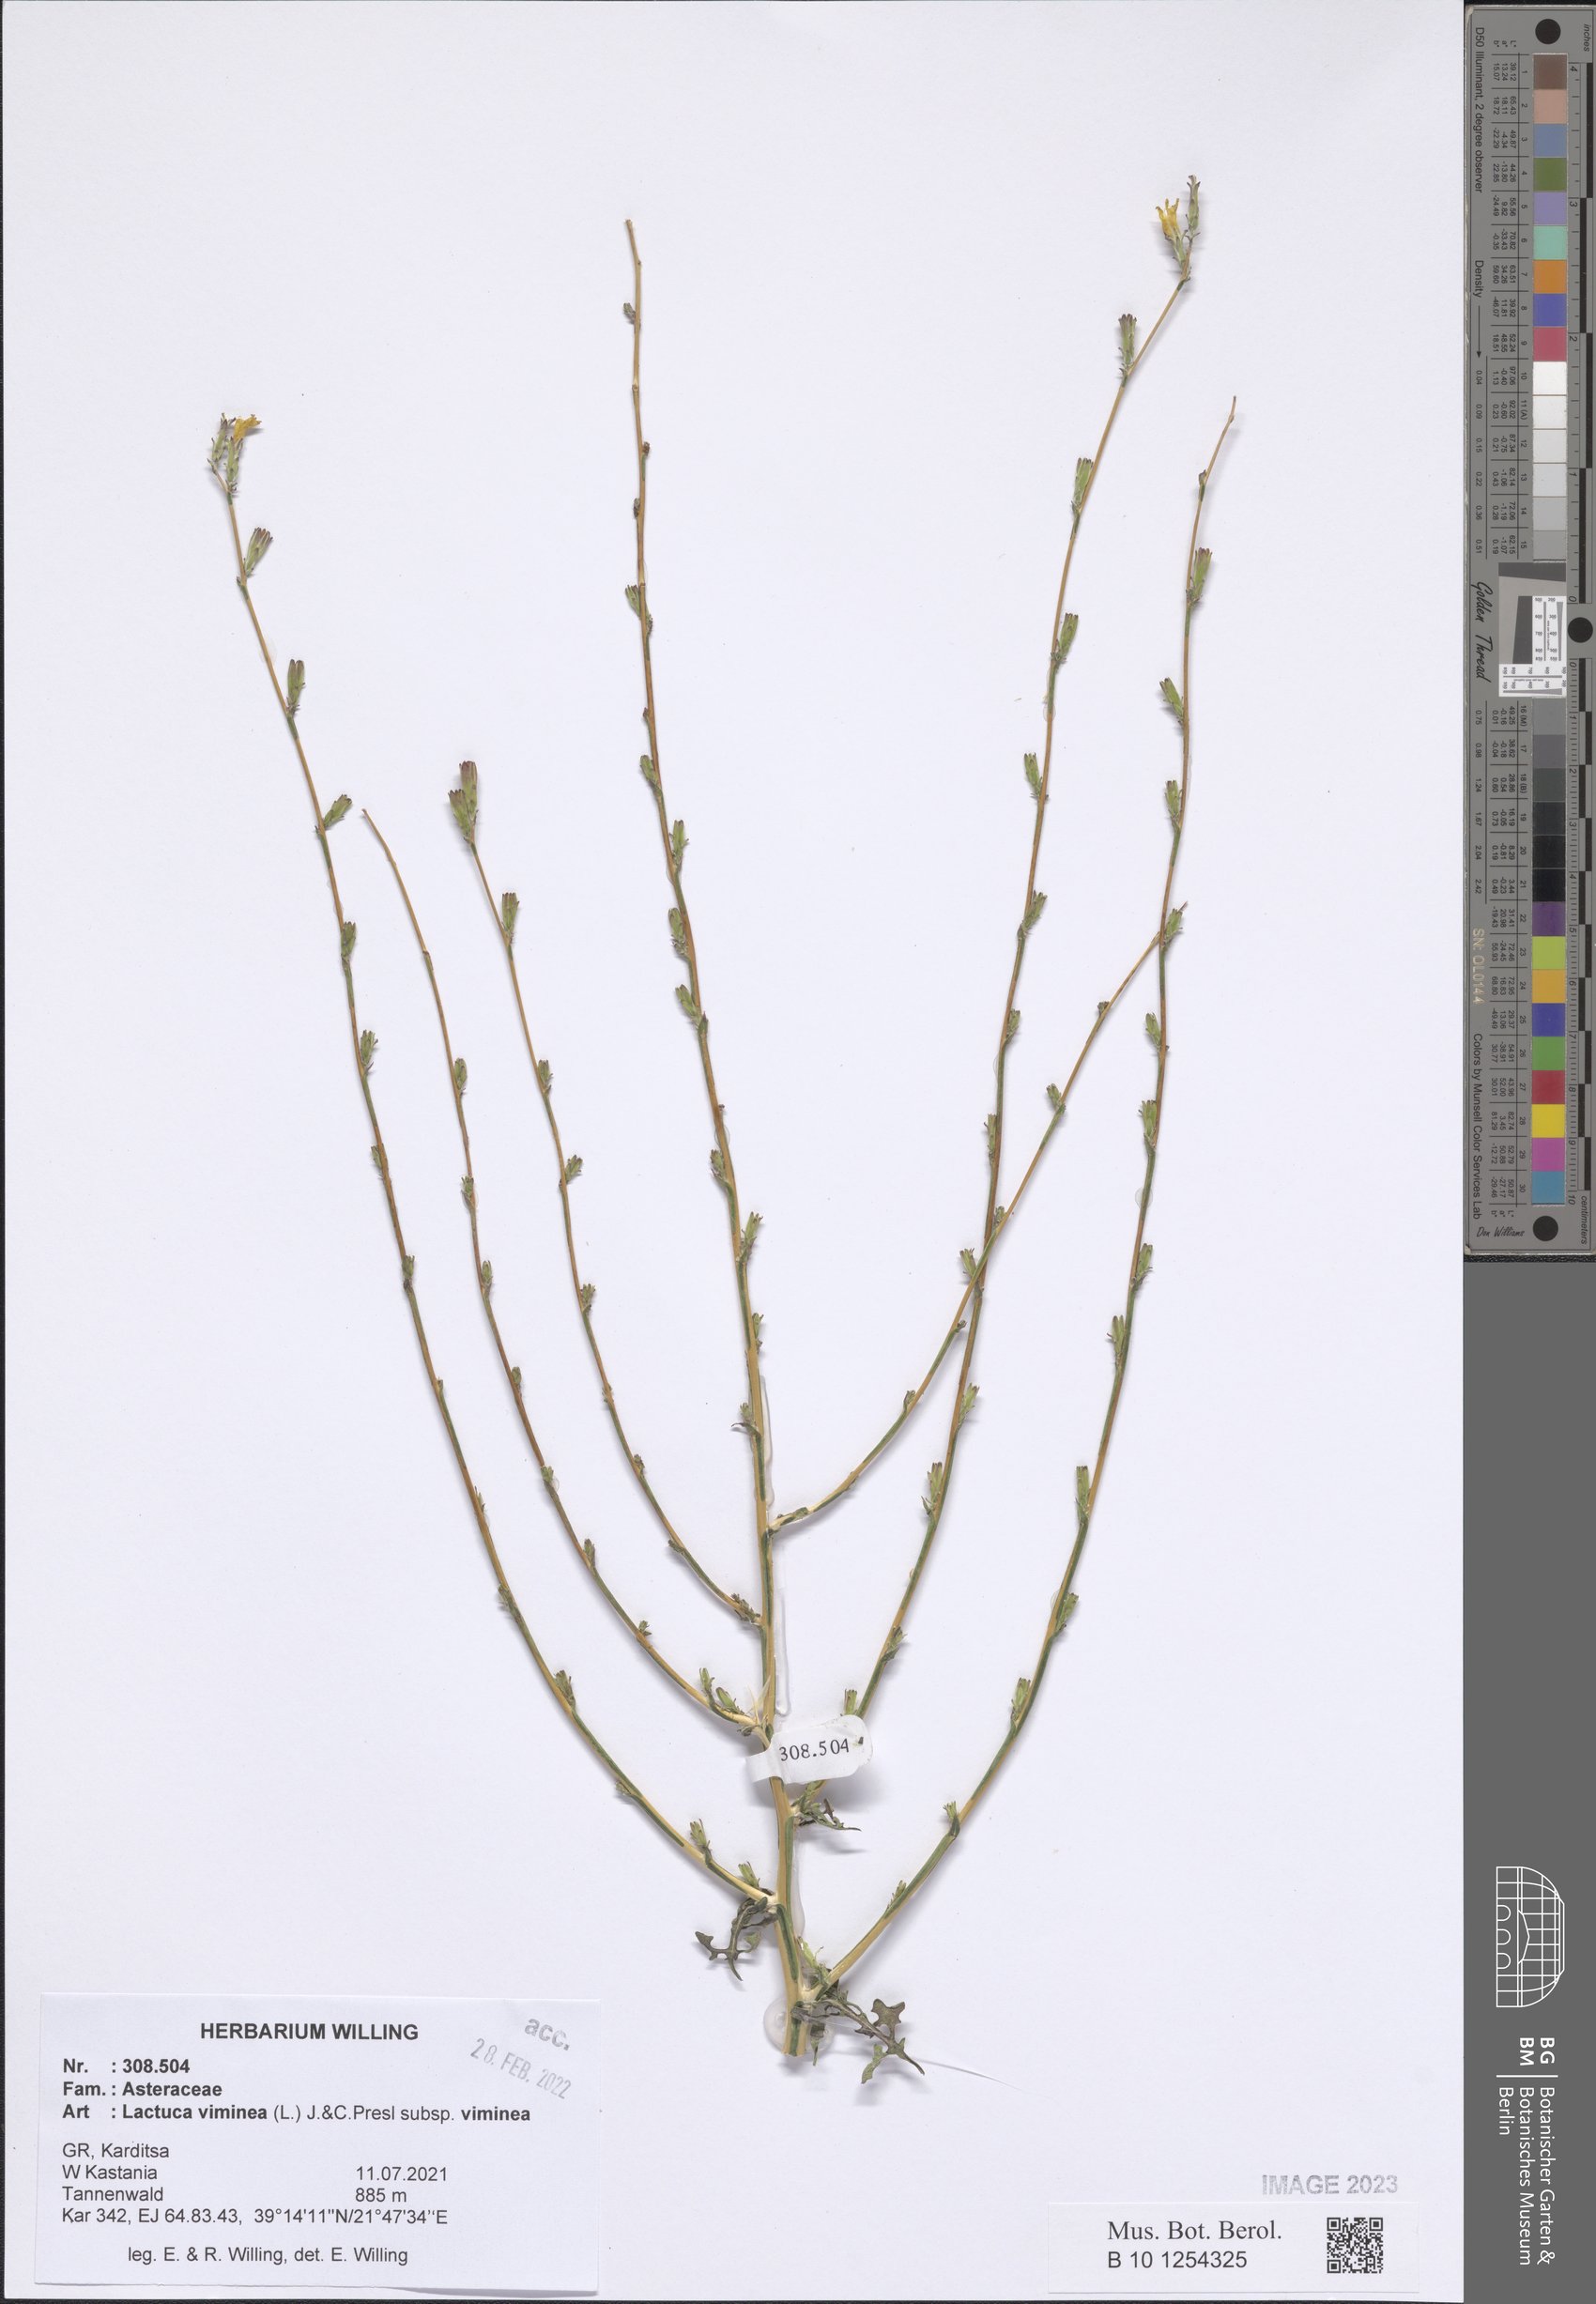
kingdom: Plantae
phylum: Tracheophyta
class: Magnoliopsida
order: Asterales
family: Asteraceae
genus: Lactuca
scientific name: Lactuca viminea
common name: Pliant lettuce
